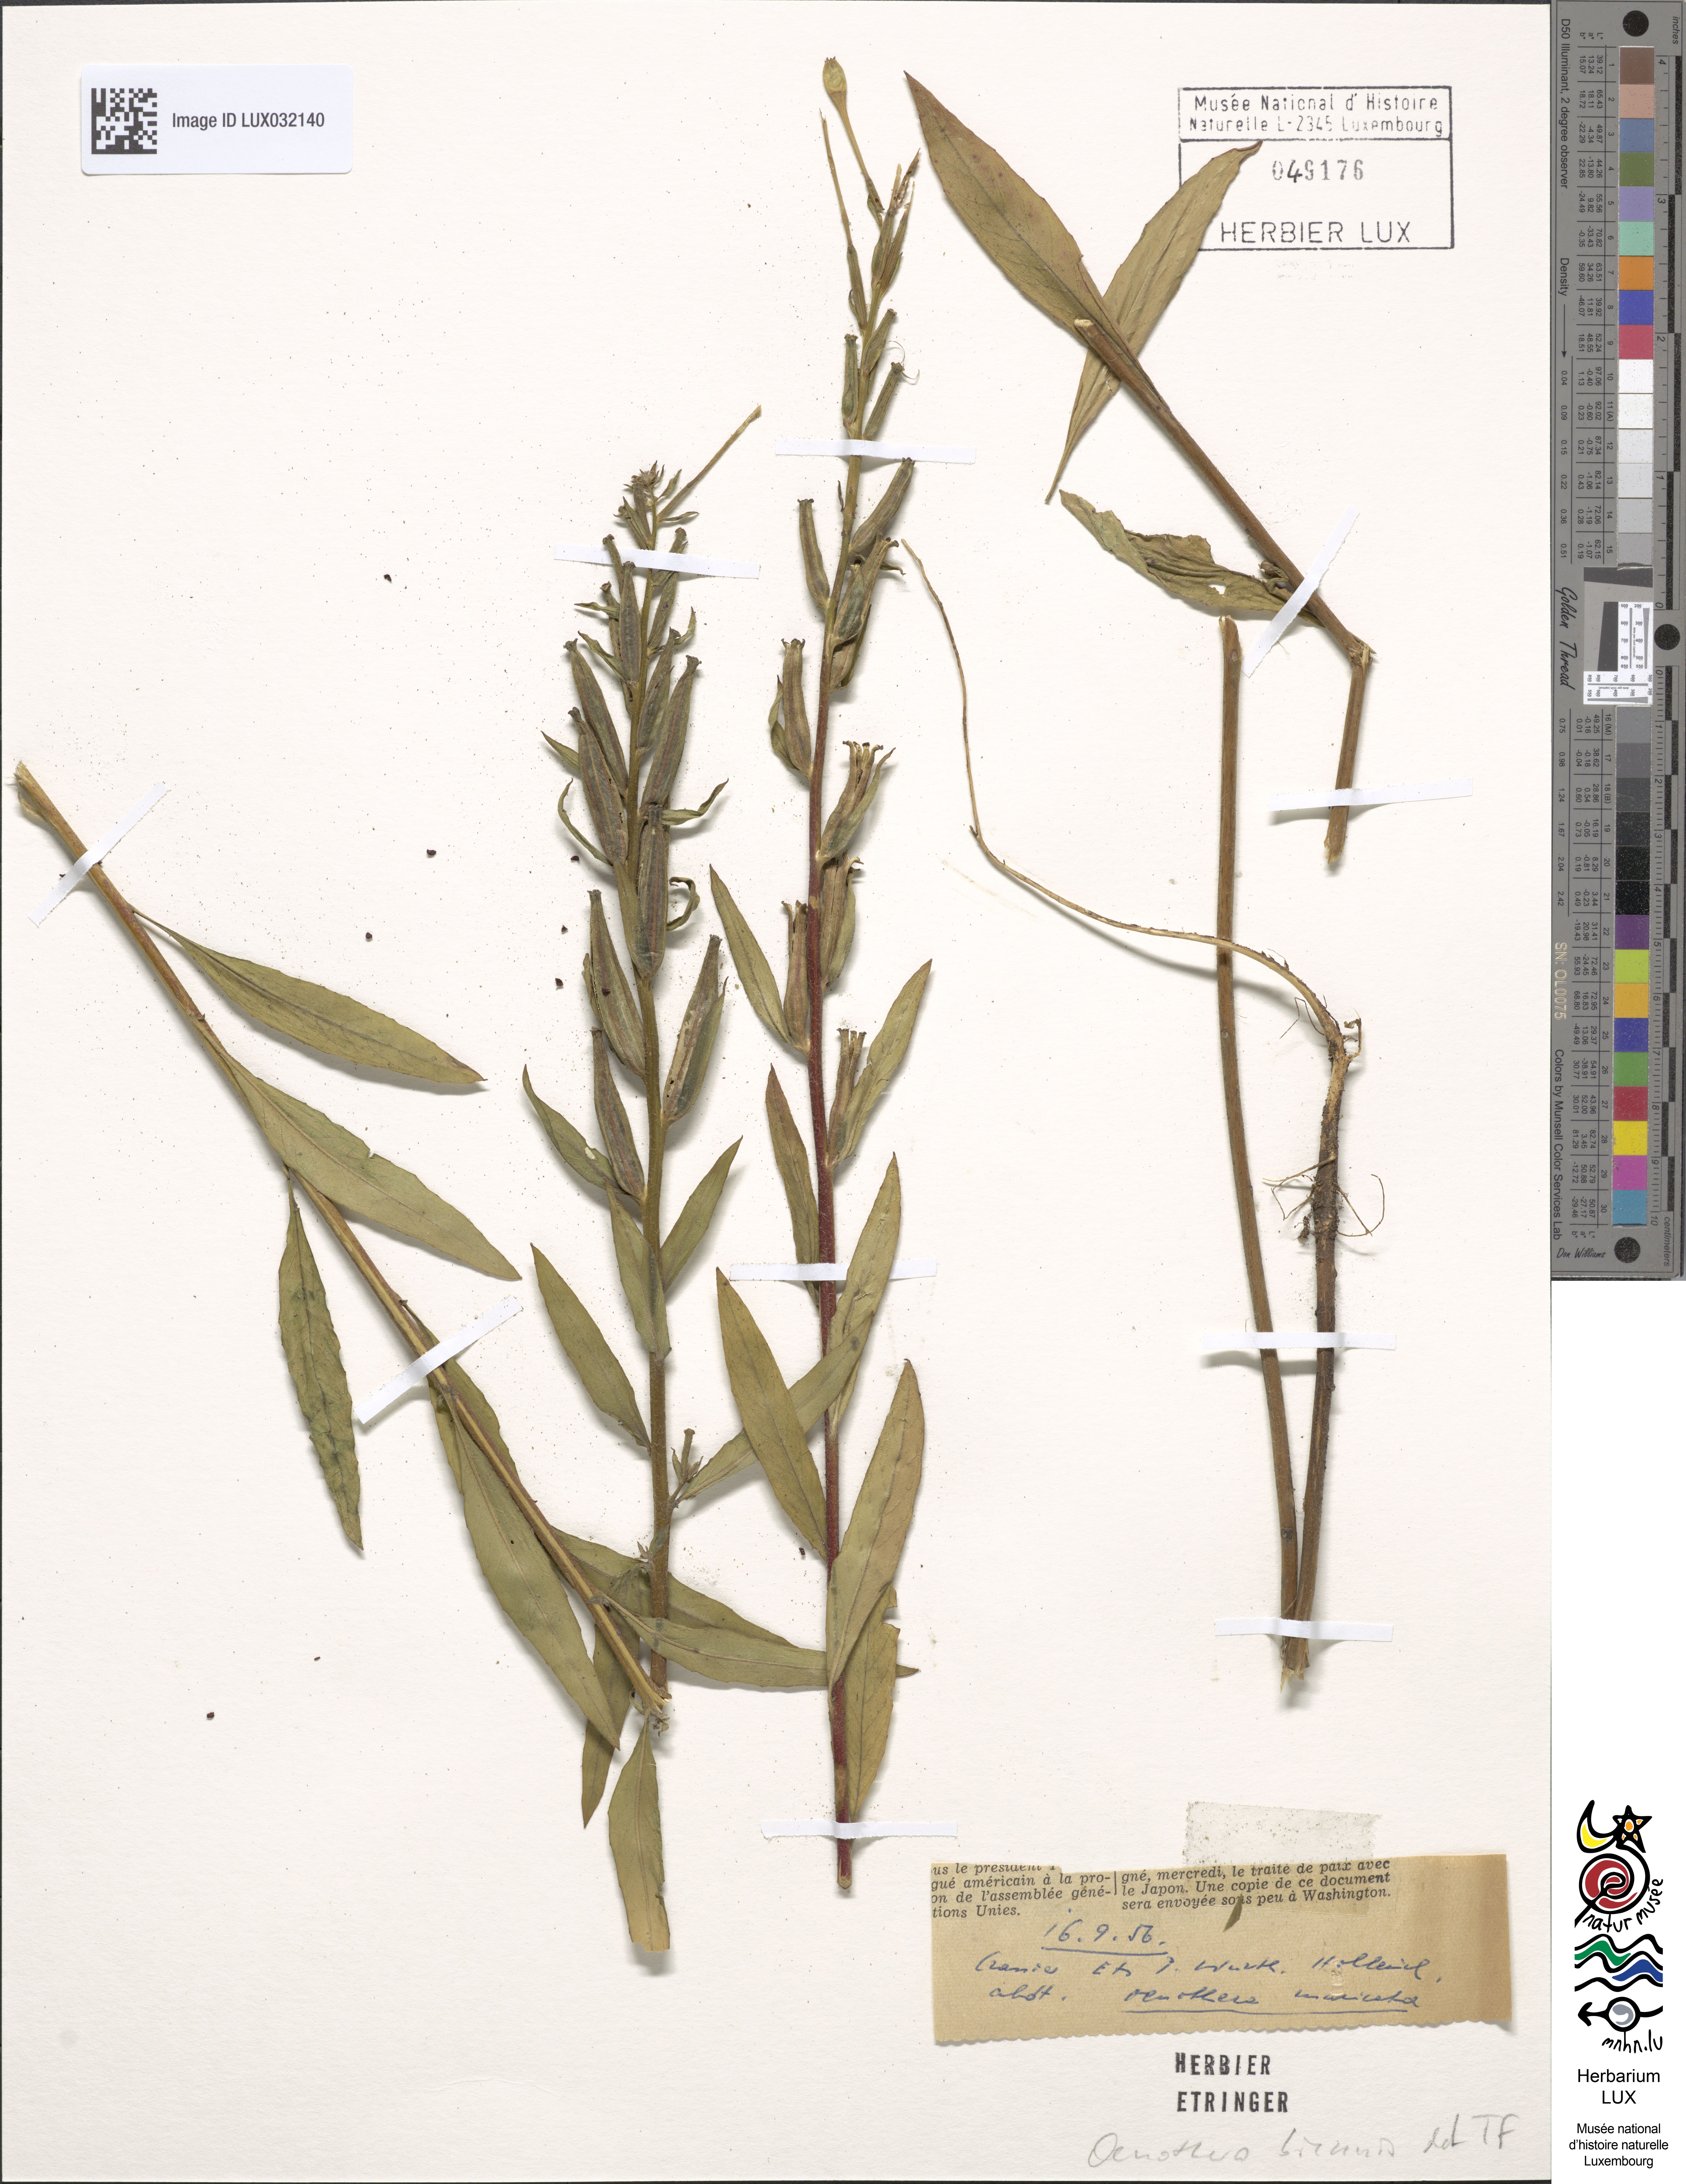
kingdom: Plantae
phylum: Tracheophyta
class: Magnoliopsida
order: Myrtales
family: Onagraceae
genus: Oenothera
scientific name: Oenothera biennis
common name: Common evening-primrose
